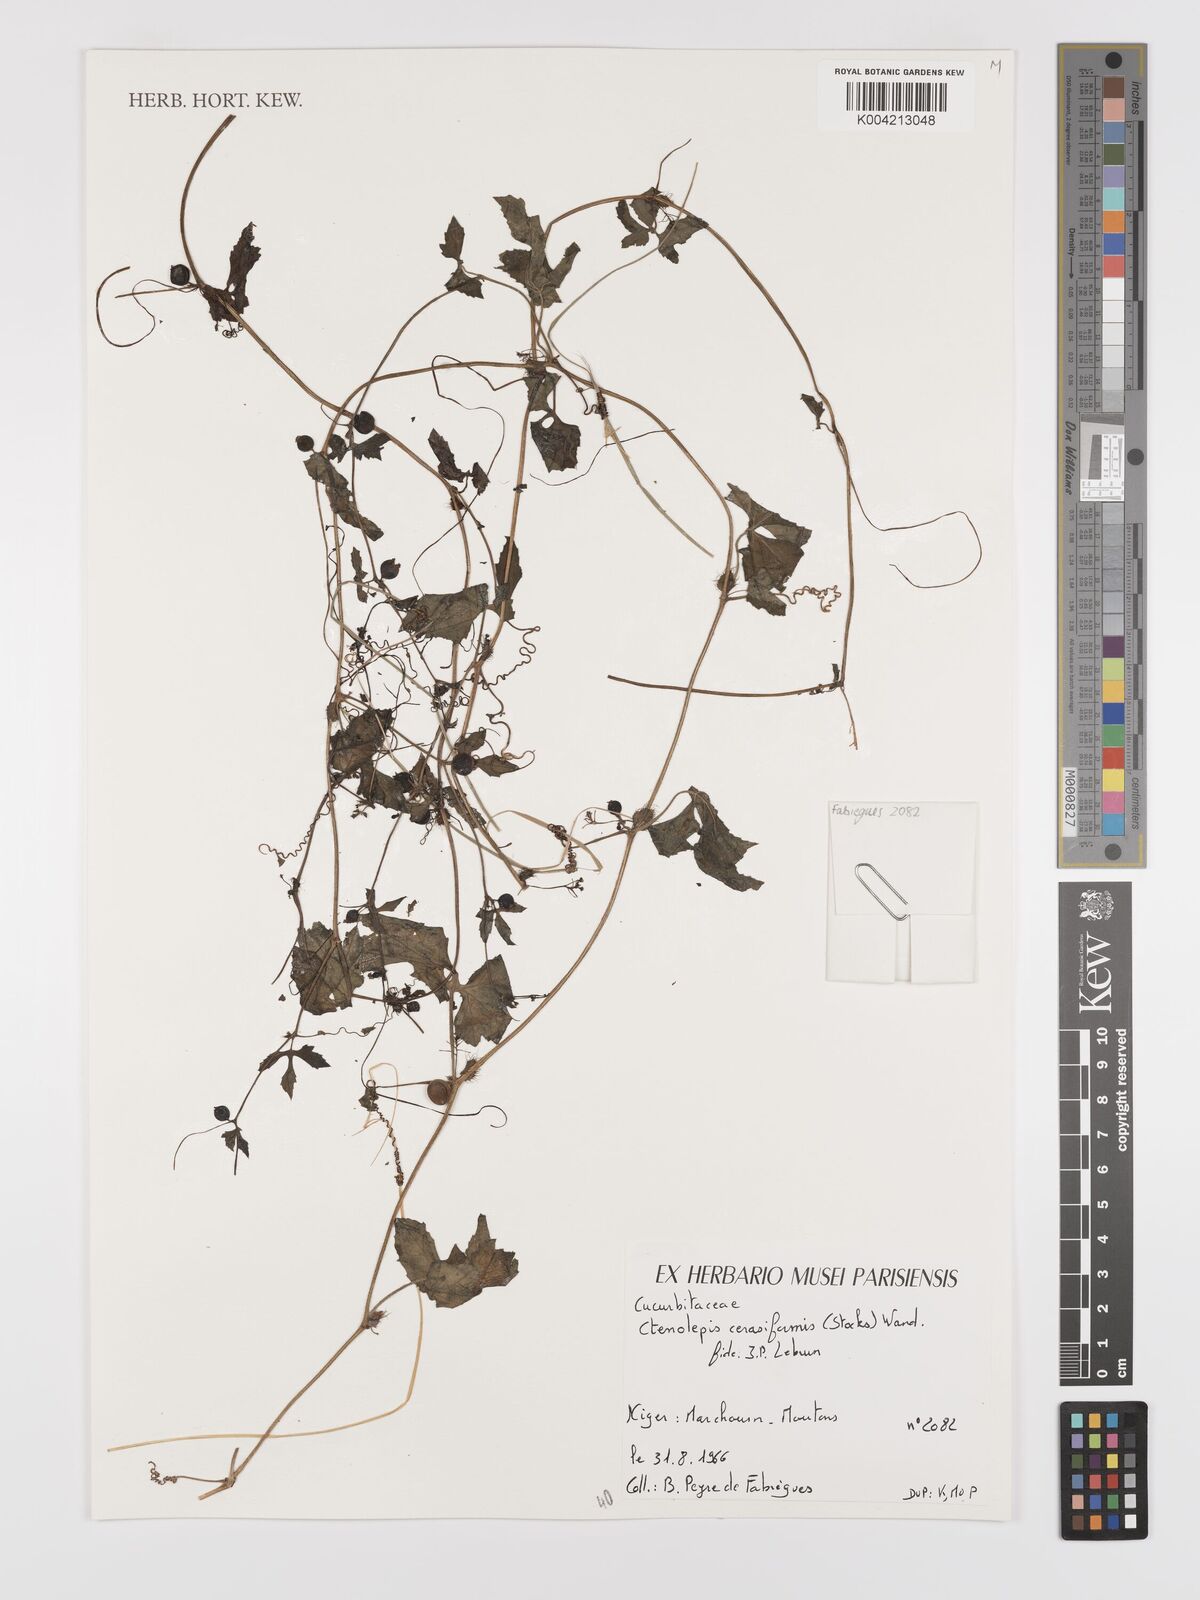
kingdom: Plantae
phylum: Tracheophyta
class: Magnoliopsida
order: Cucurbitales
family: Cucurbitaceae
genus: Blastania
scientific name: Blastania cerasiformis
